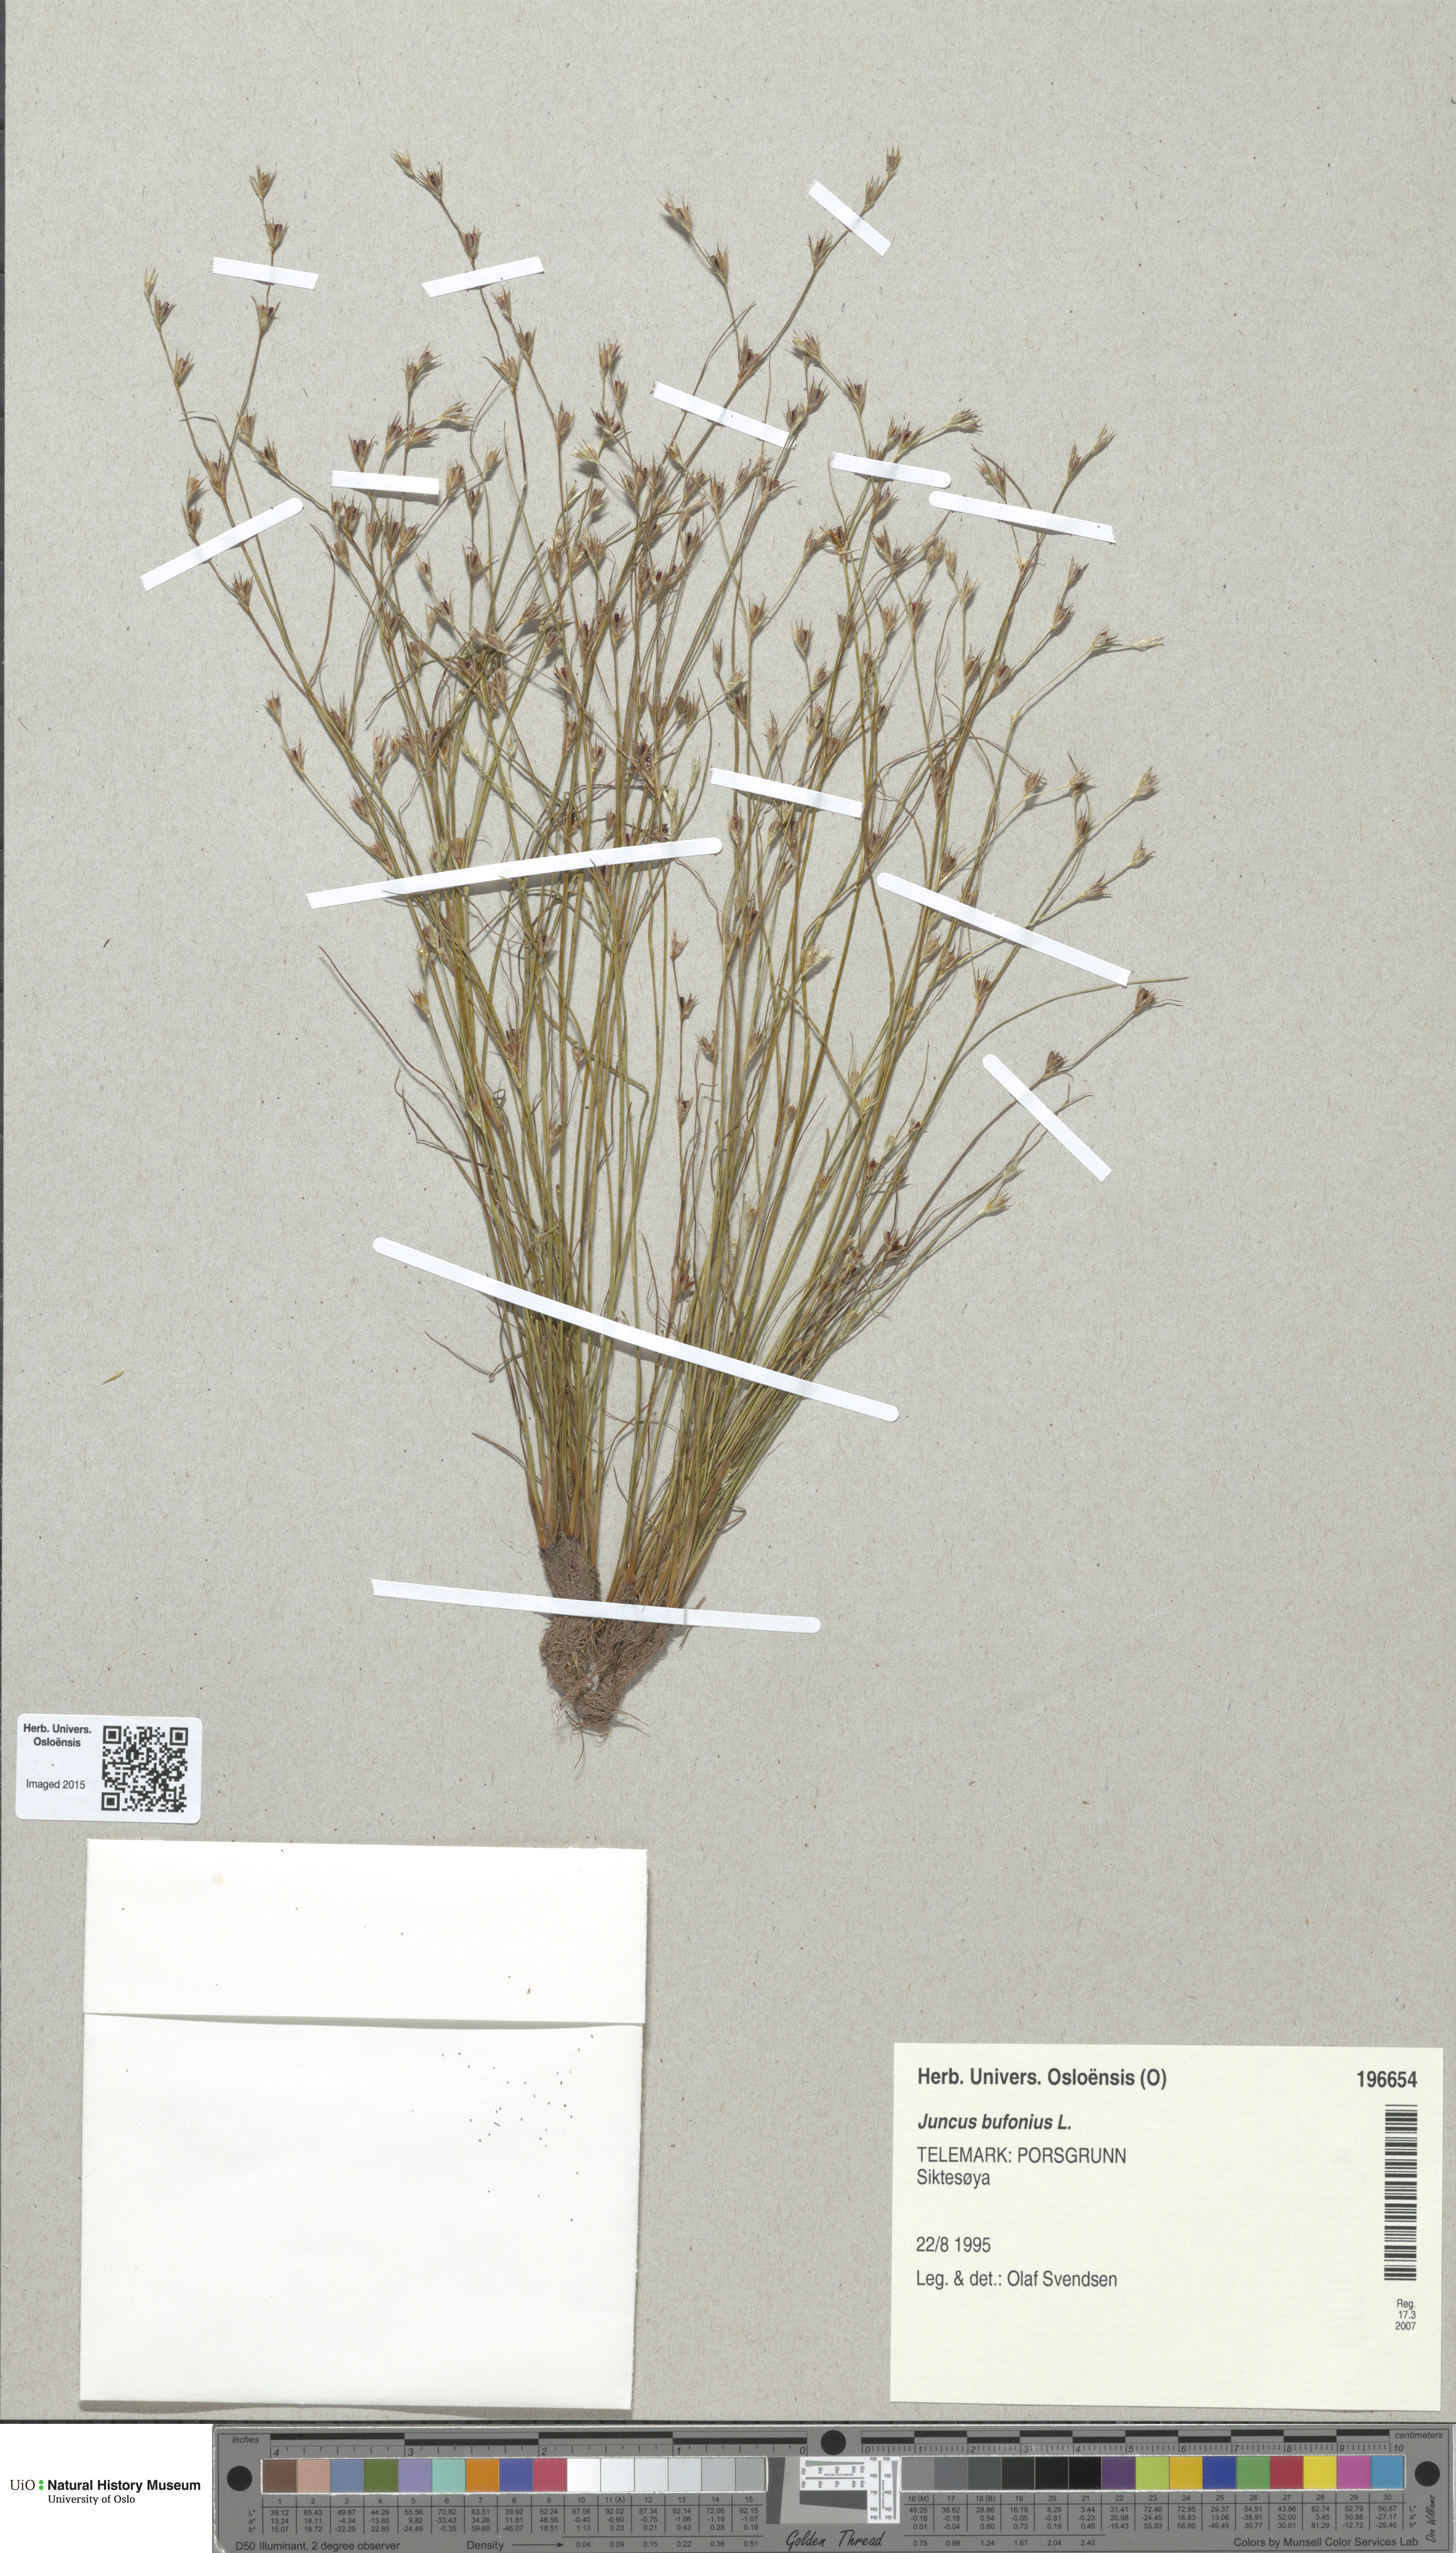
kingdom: Plantae
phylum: Tracheophyta
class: Liliopsida
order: Poales
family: Juncaceae
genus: Juncus
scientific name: Juncus bufonius
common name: Toad rush
